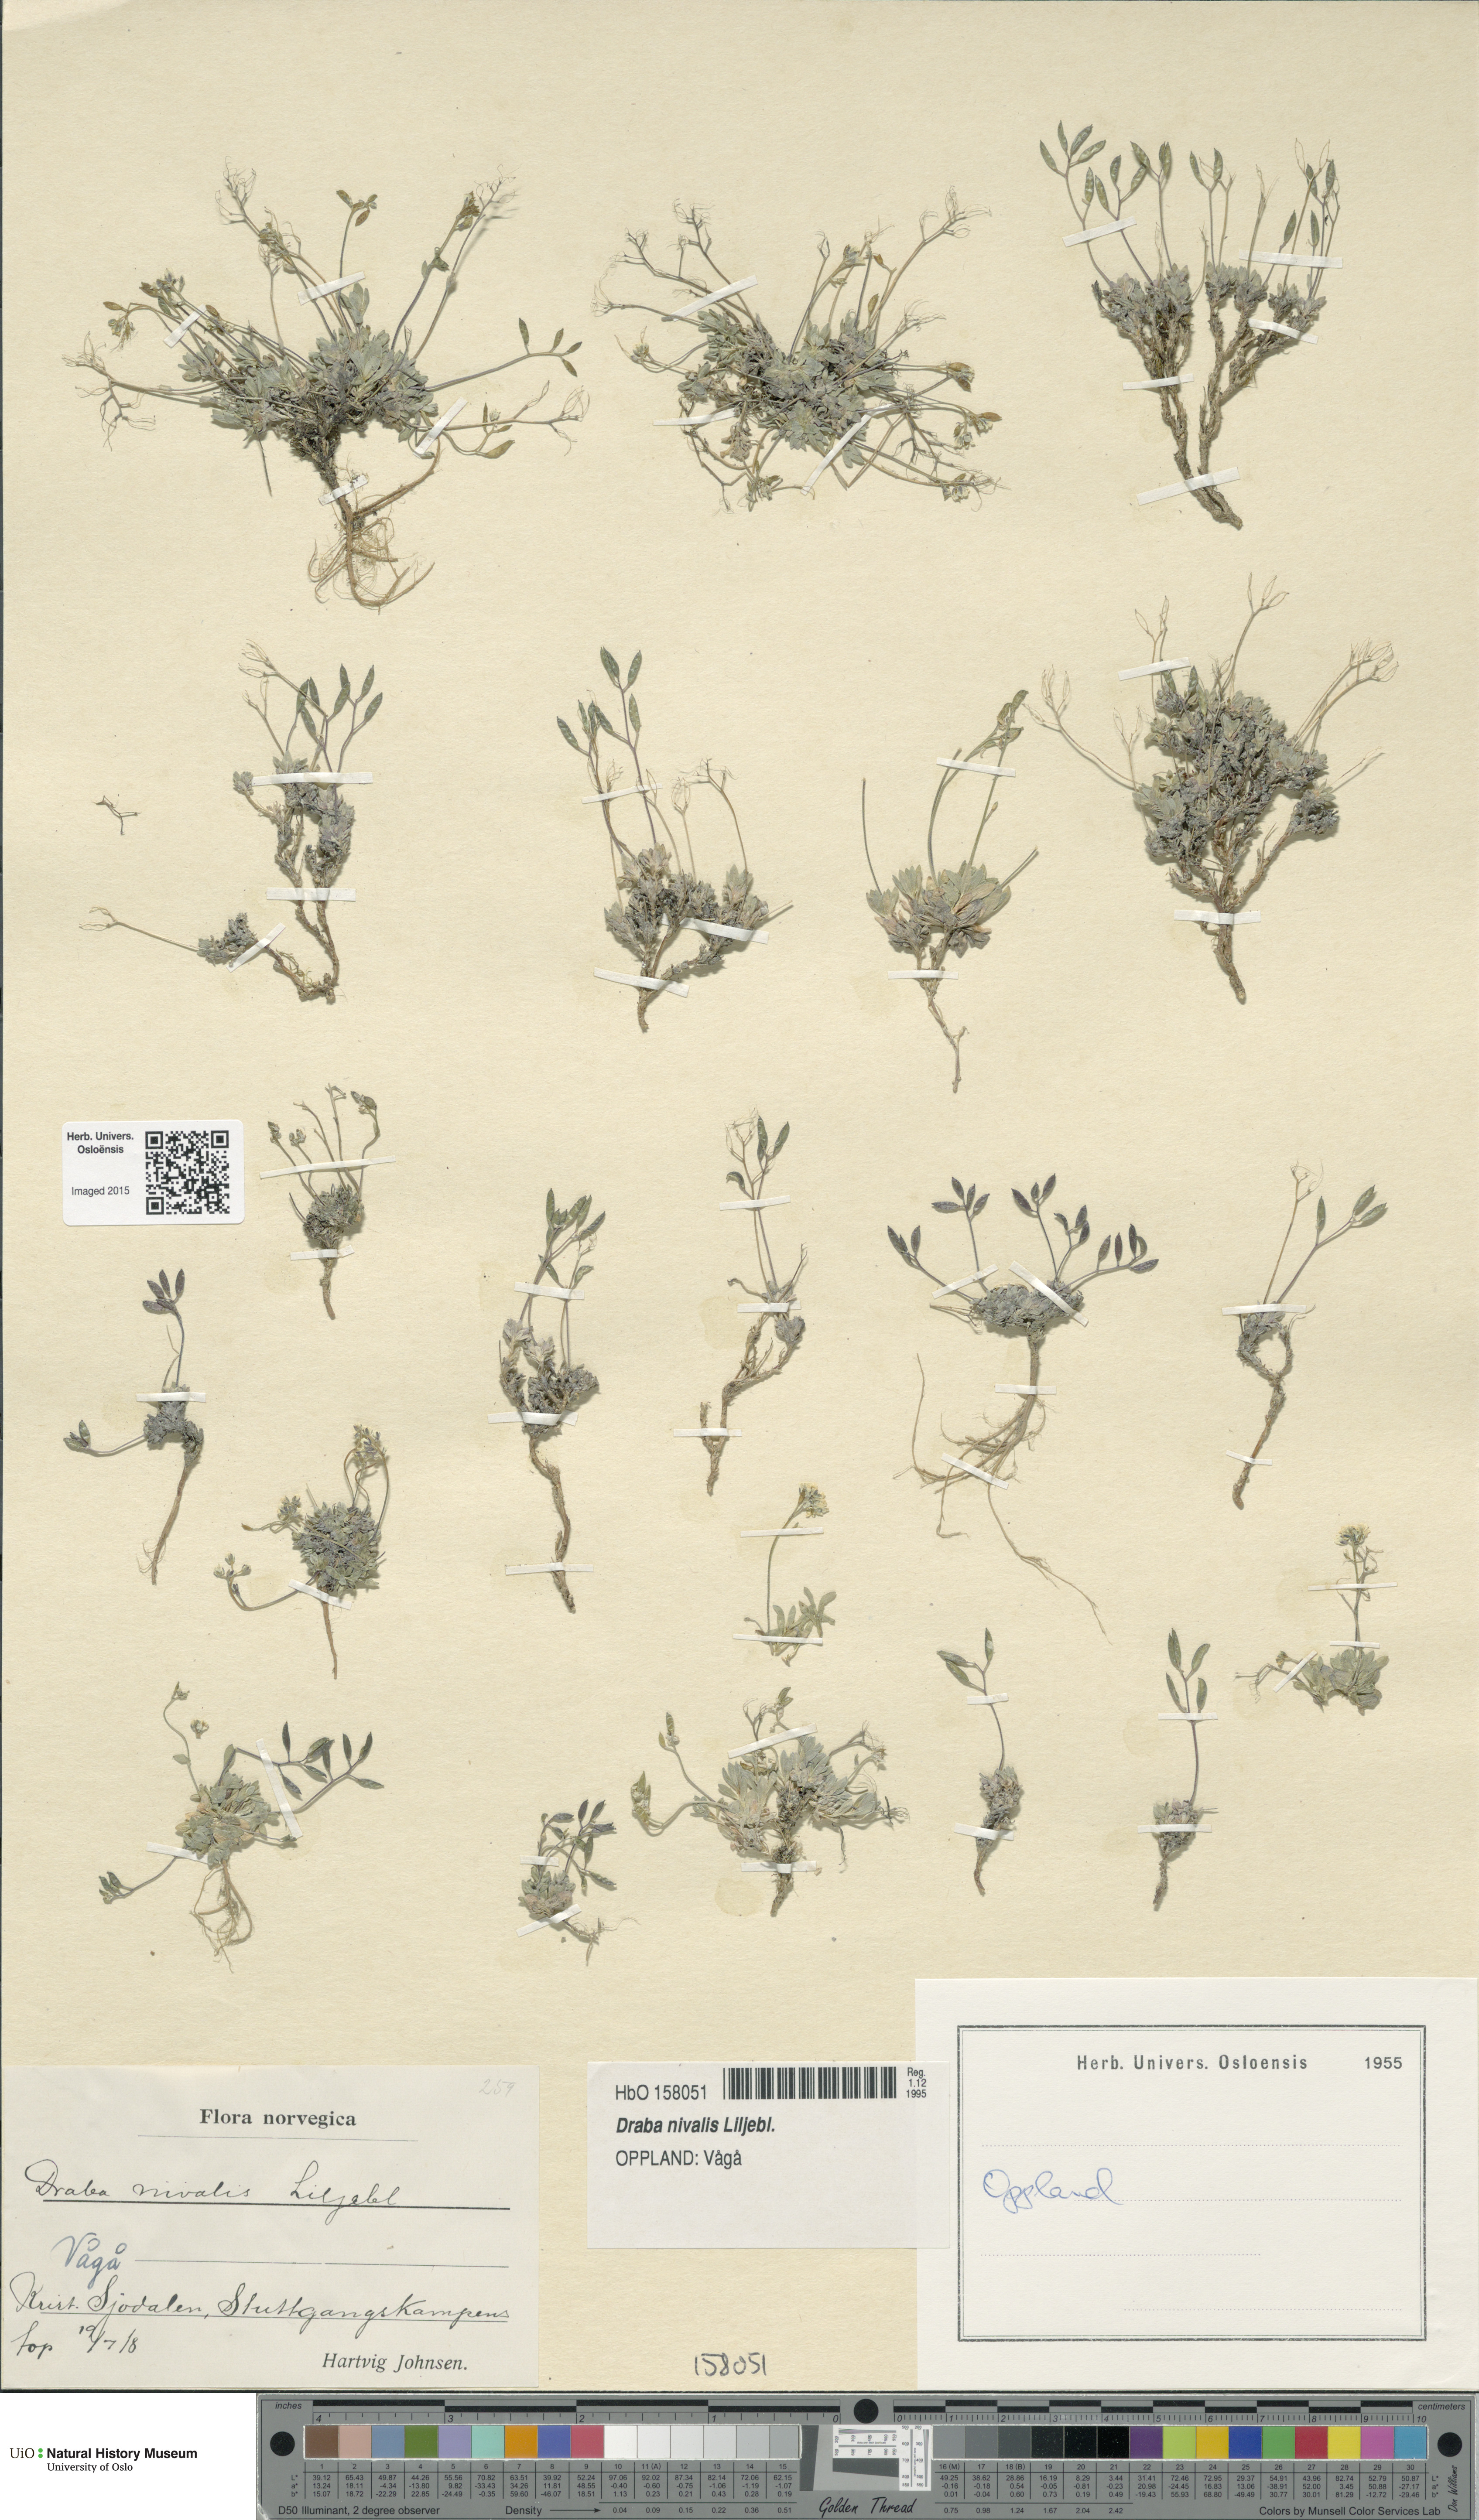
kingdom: Plantae
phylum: Tracheophyta
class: Magnoliopsida
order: Brassicales
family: Brassicaceae
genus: Draba
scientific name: Draba nivalis
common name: Snow draba
